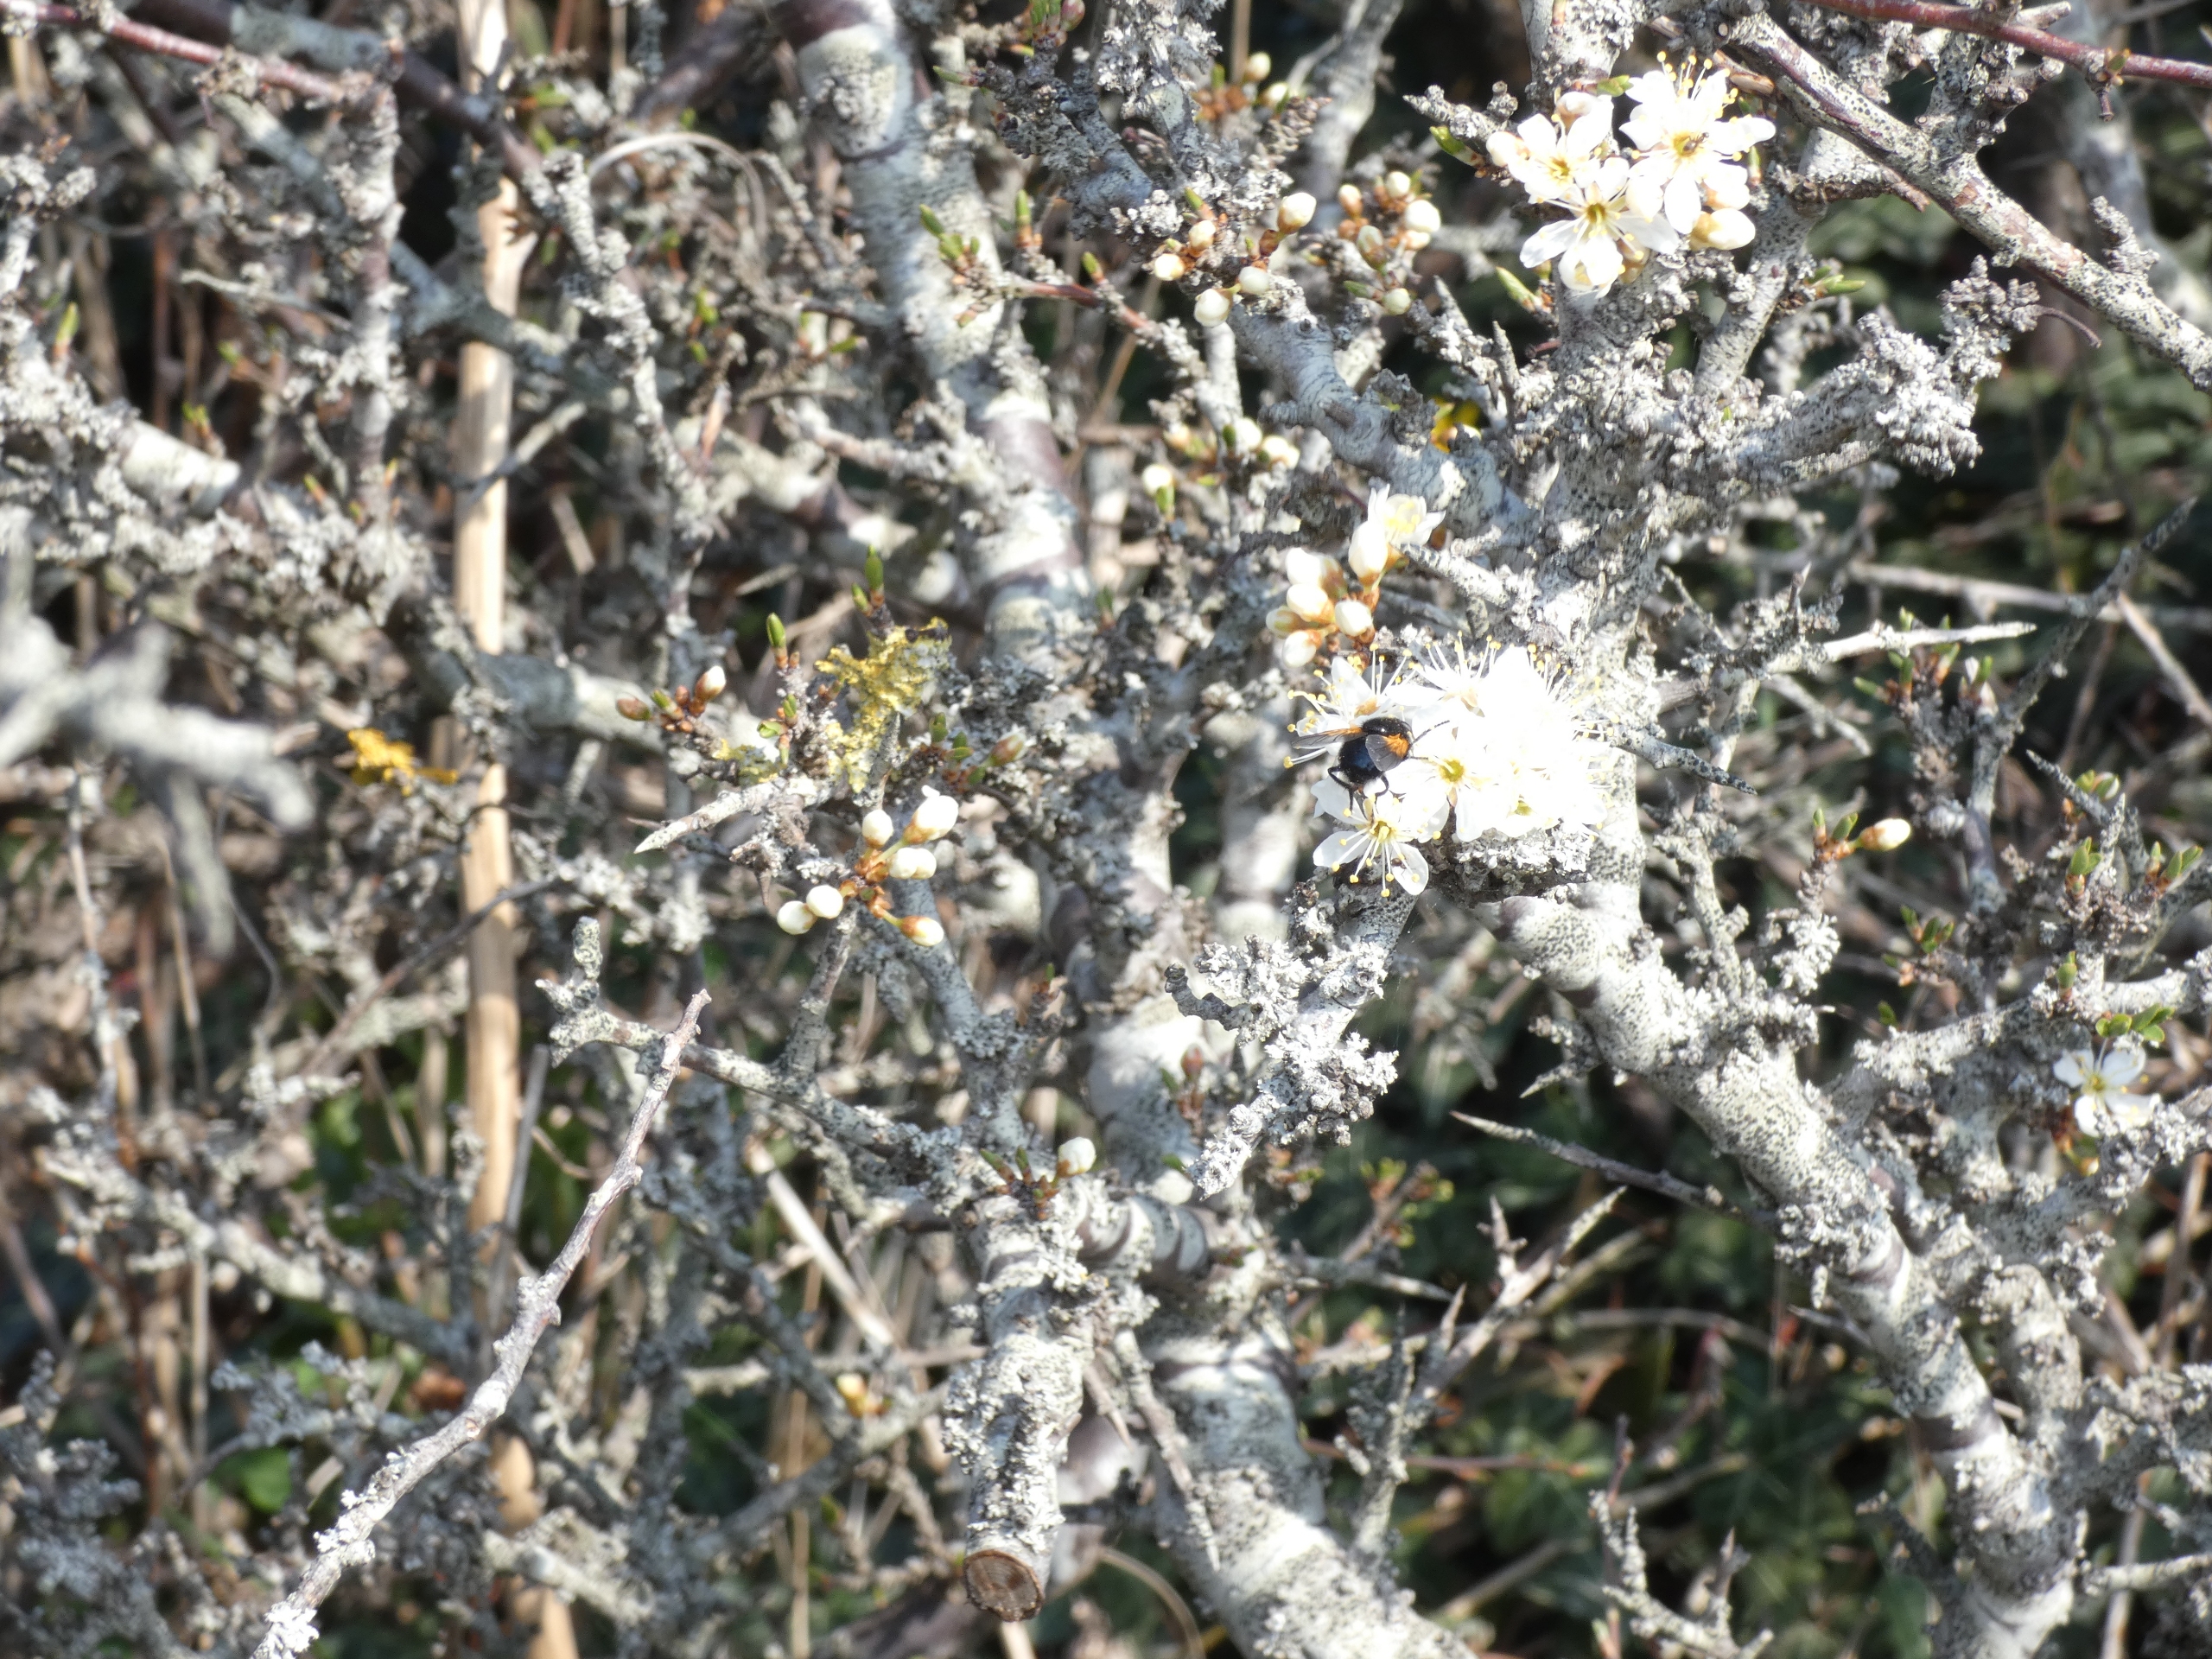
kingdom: Animalia
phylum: Arthropoda
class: Insecta
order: Diptera
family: Muscidae
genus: Mesembrina
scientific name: Mesembrina meridiana
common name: Gulvinget flue
